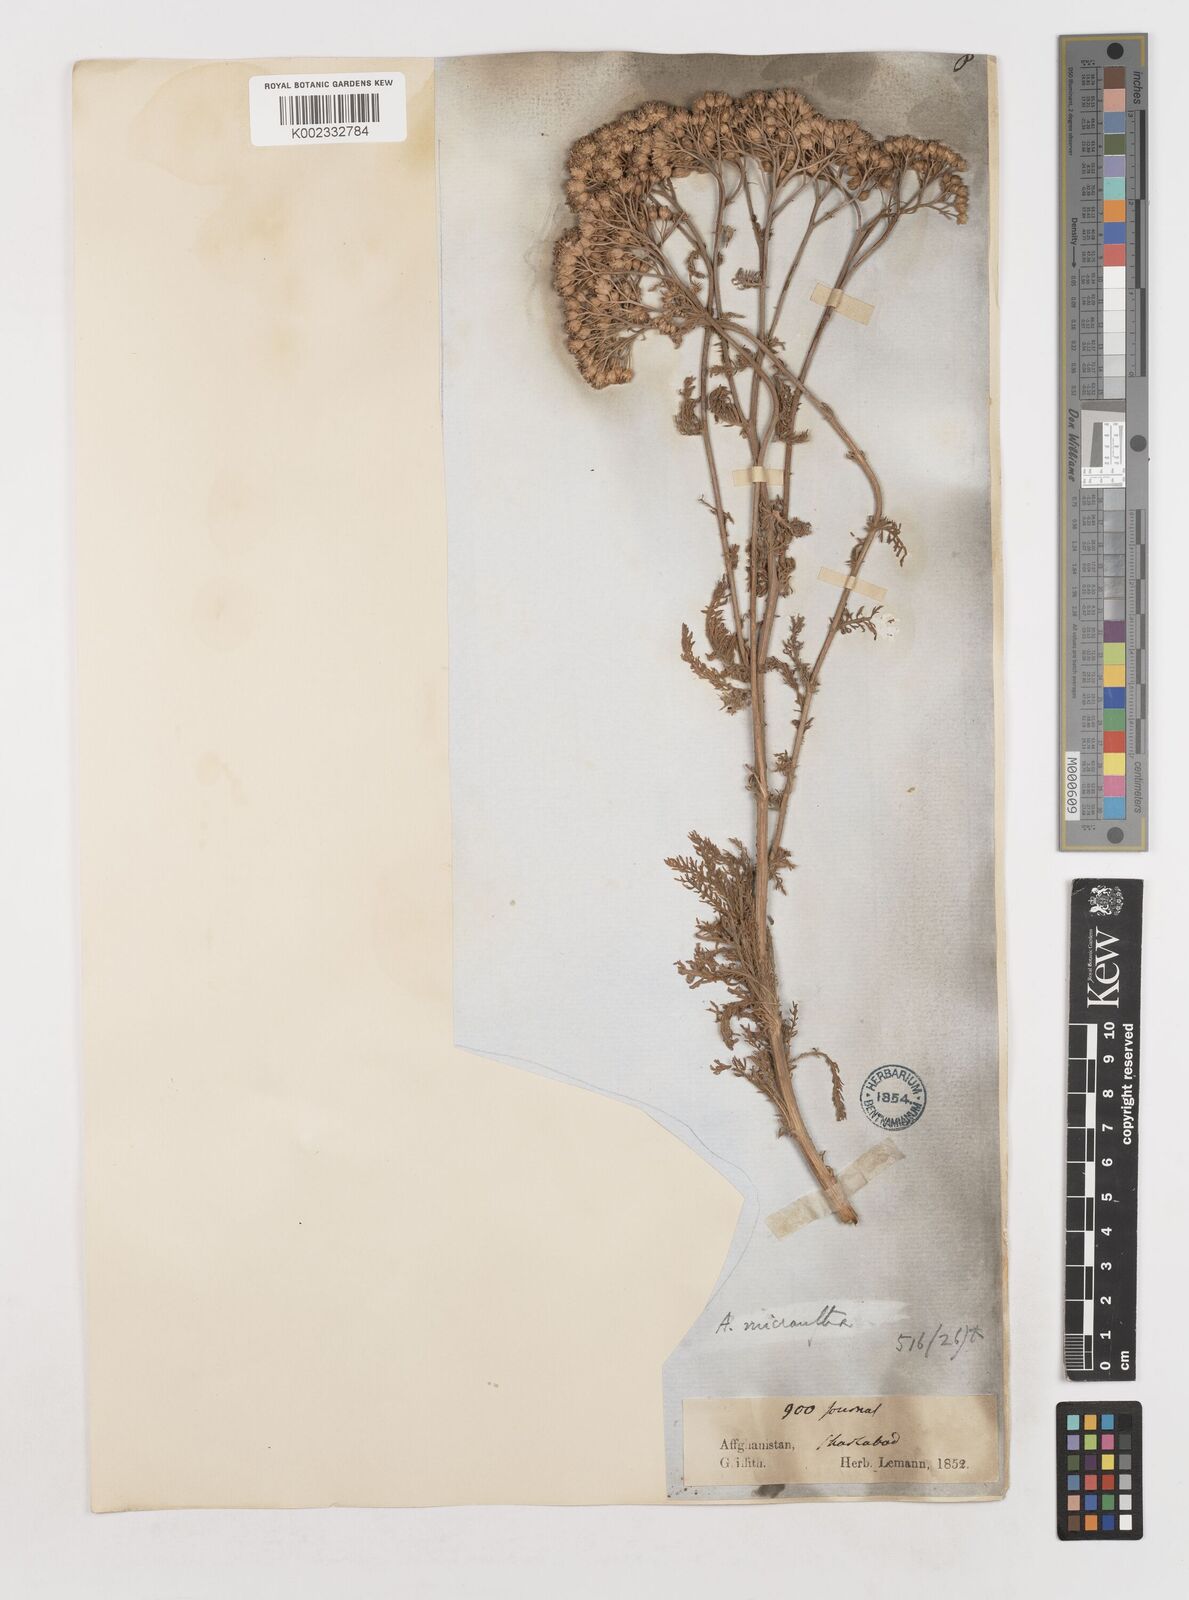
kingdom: Plantae
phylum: Tracheophyta
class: Magnoliopsida
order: Asterales
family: Asteraceae
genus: Achillea
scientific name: Achillea arabica
